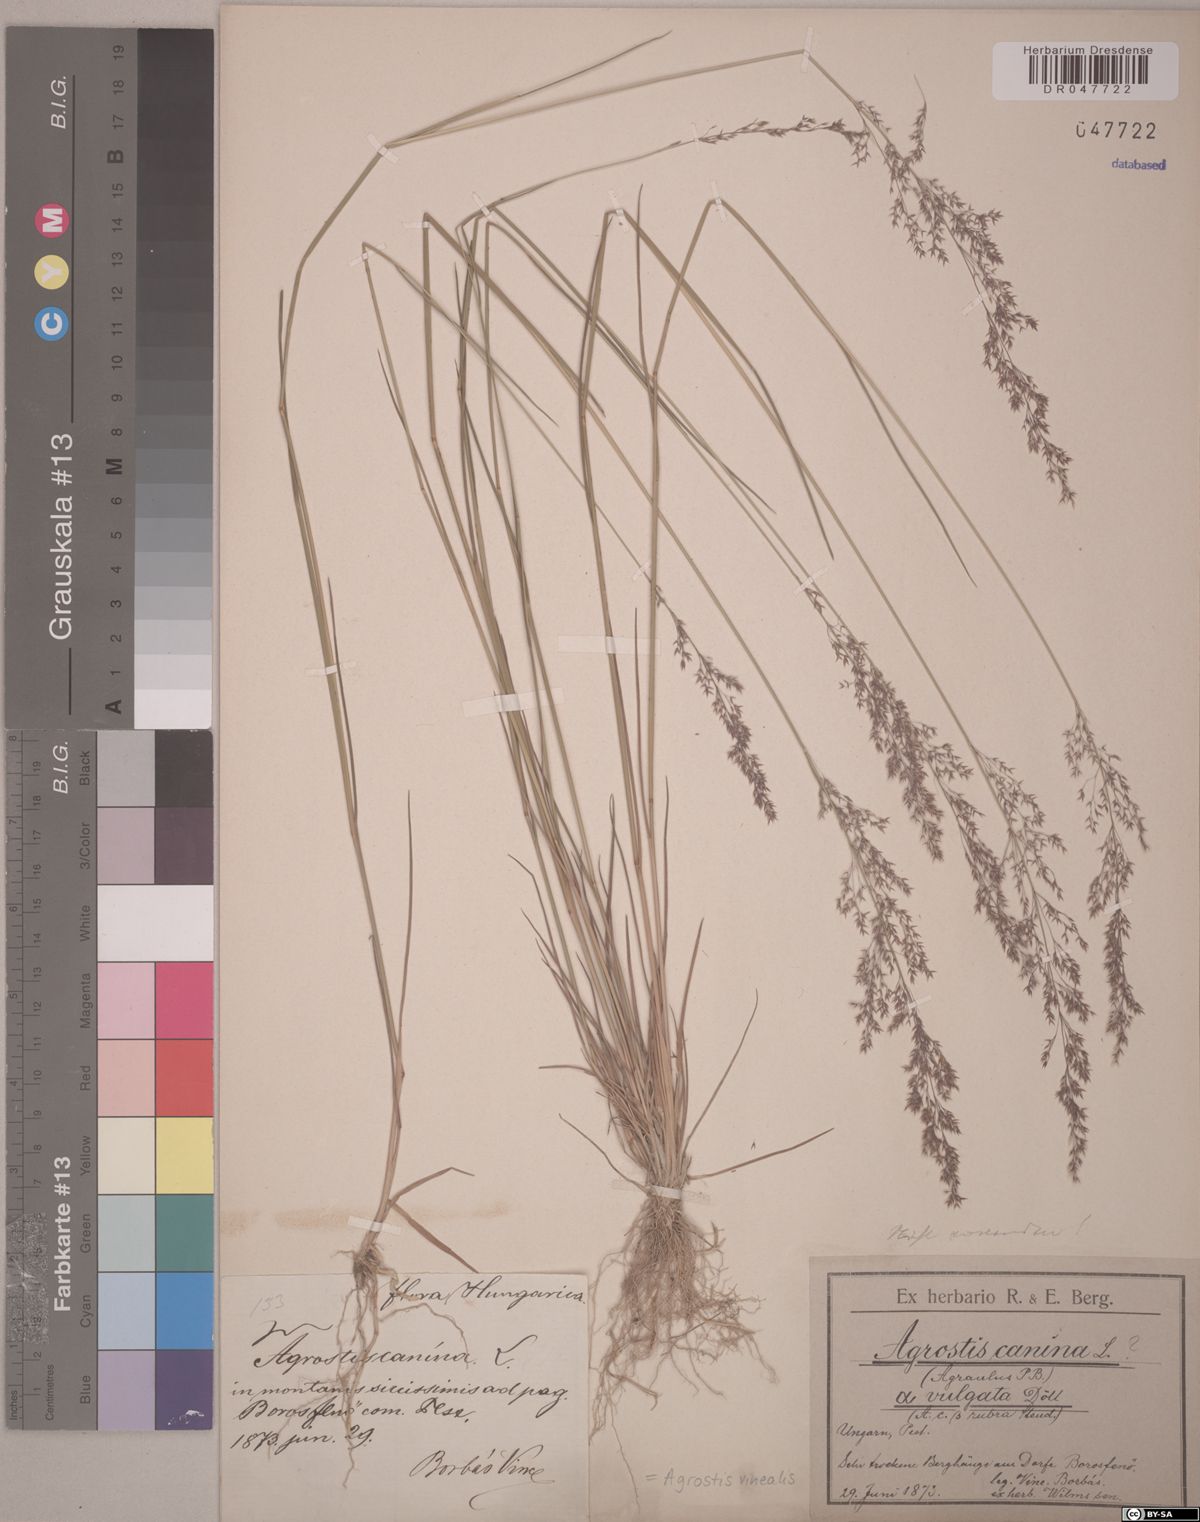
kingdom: Plantae
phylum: Tracheophyta
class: Liliopsida
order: Poales
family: Poaceae
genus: Agrostis
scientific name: Agrostis vinealis
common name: Brown bent
